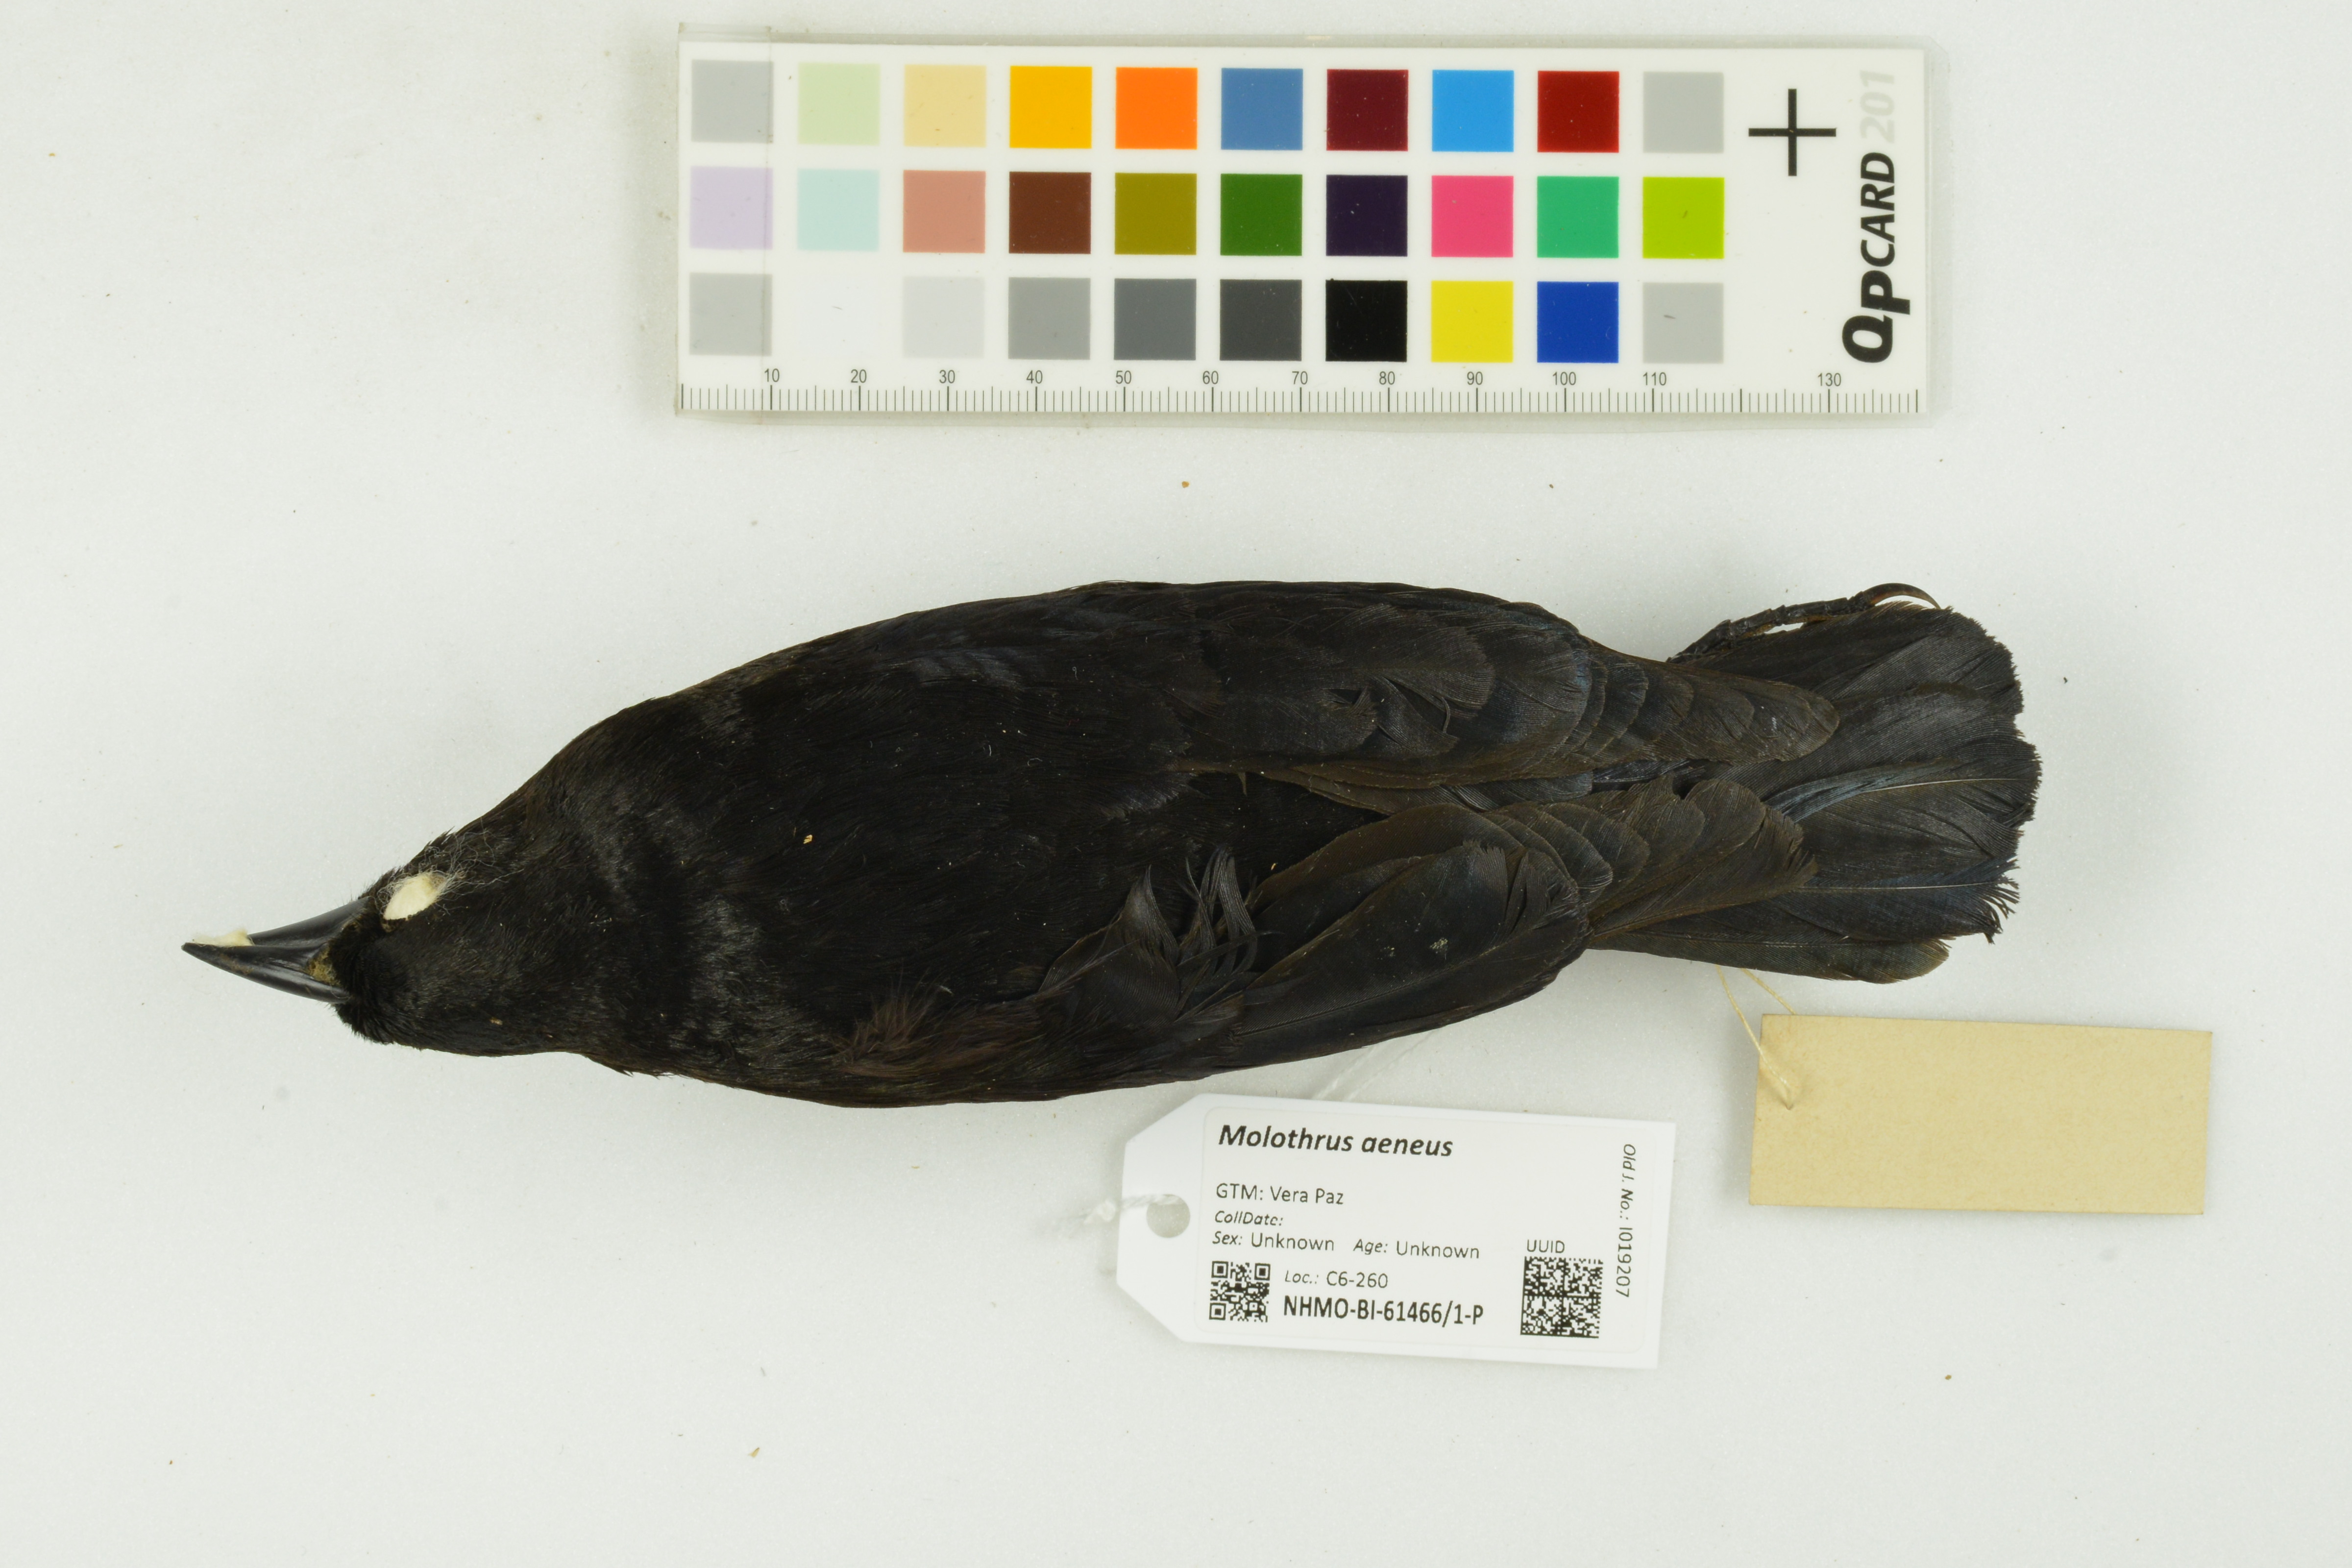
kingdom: Animalia
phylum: Chordata
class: Aves
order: Passeriformes
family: Icteridae
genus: Molothrus
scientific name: Molothrus aeneus
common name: Bronzed cowbird
